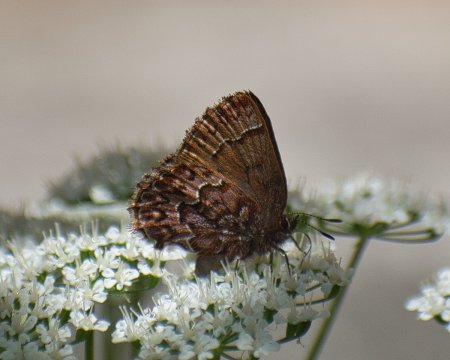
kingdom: Animalia
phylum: Arthropoda
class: Insecta
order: Lepidoptera
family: Lycaenidae
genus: Incisalia
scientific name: Incisalia eryphon
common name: Western Pine Elfin
